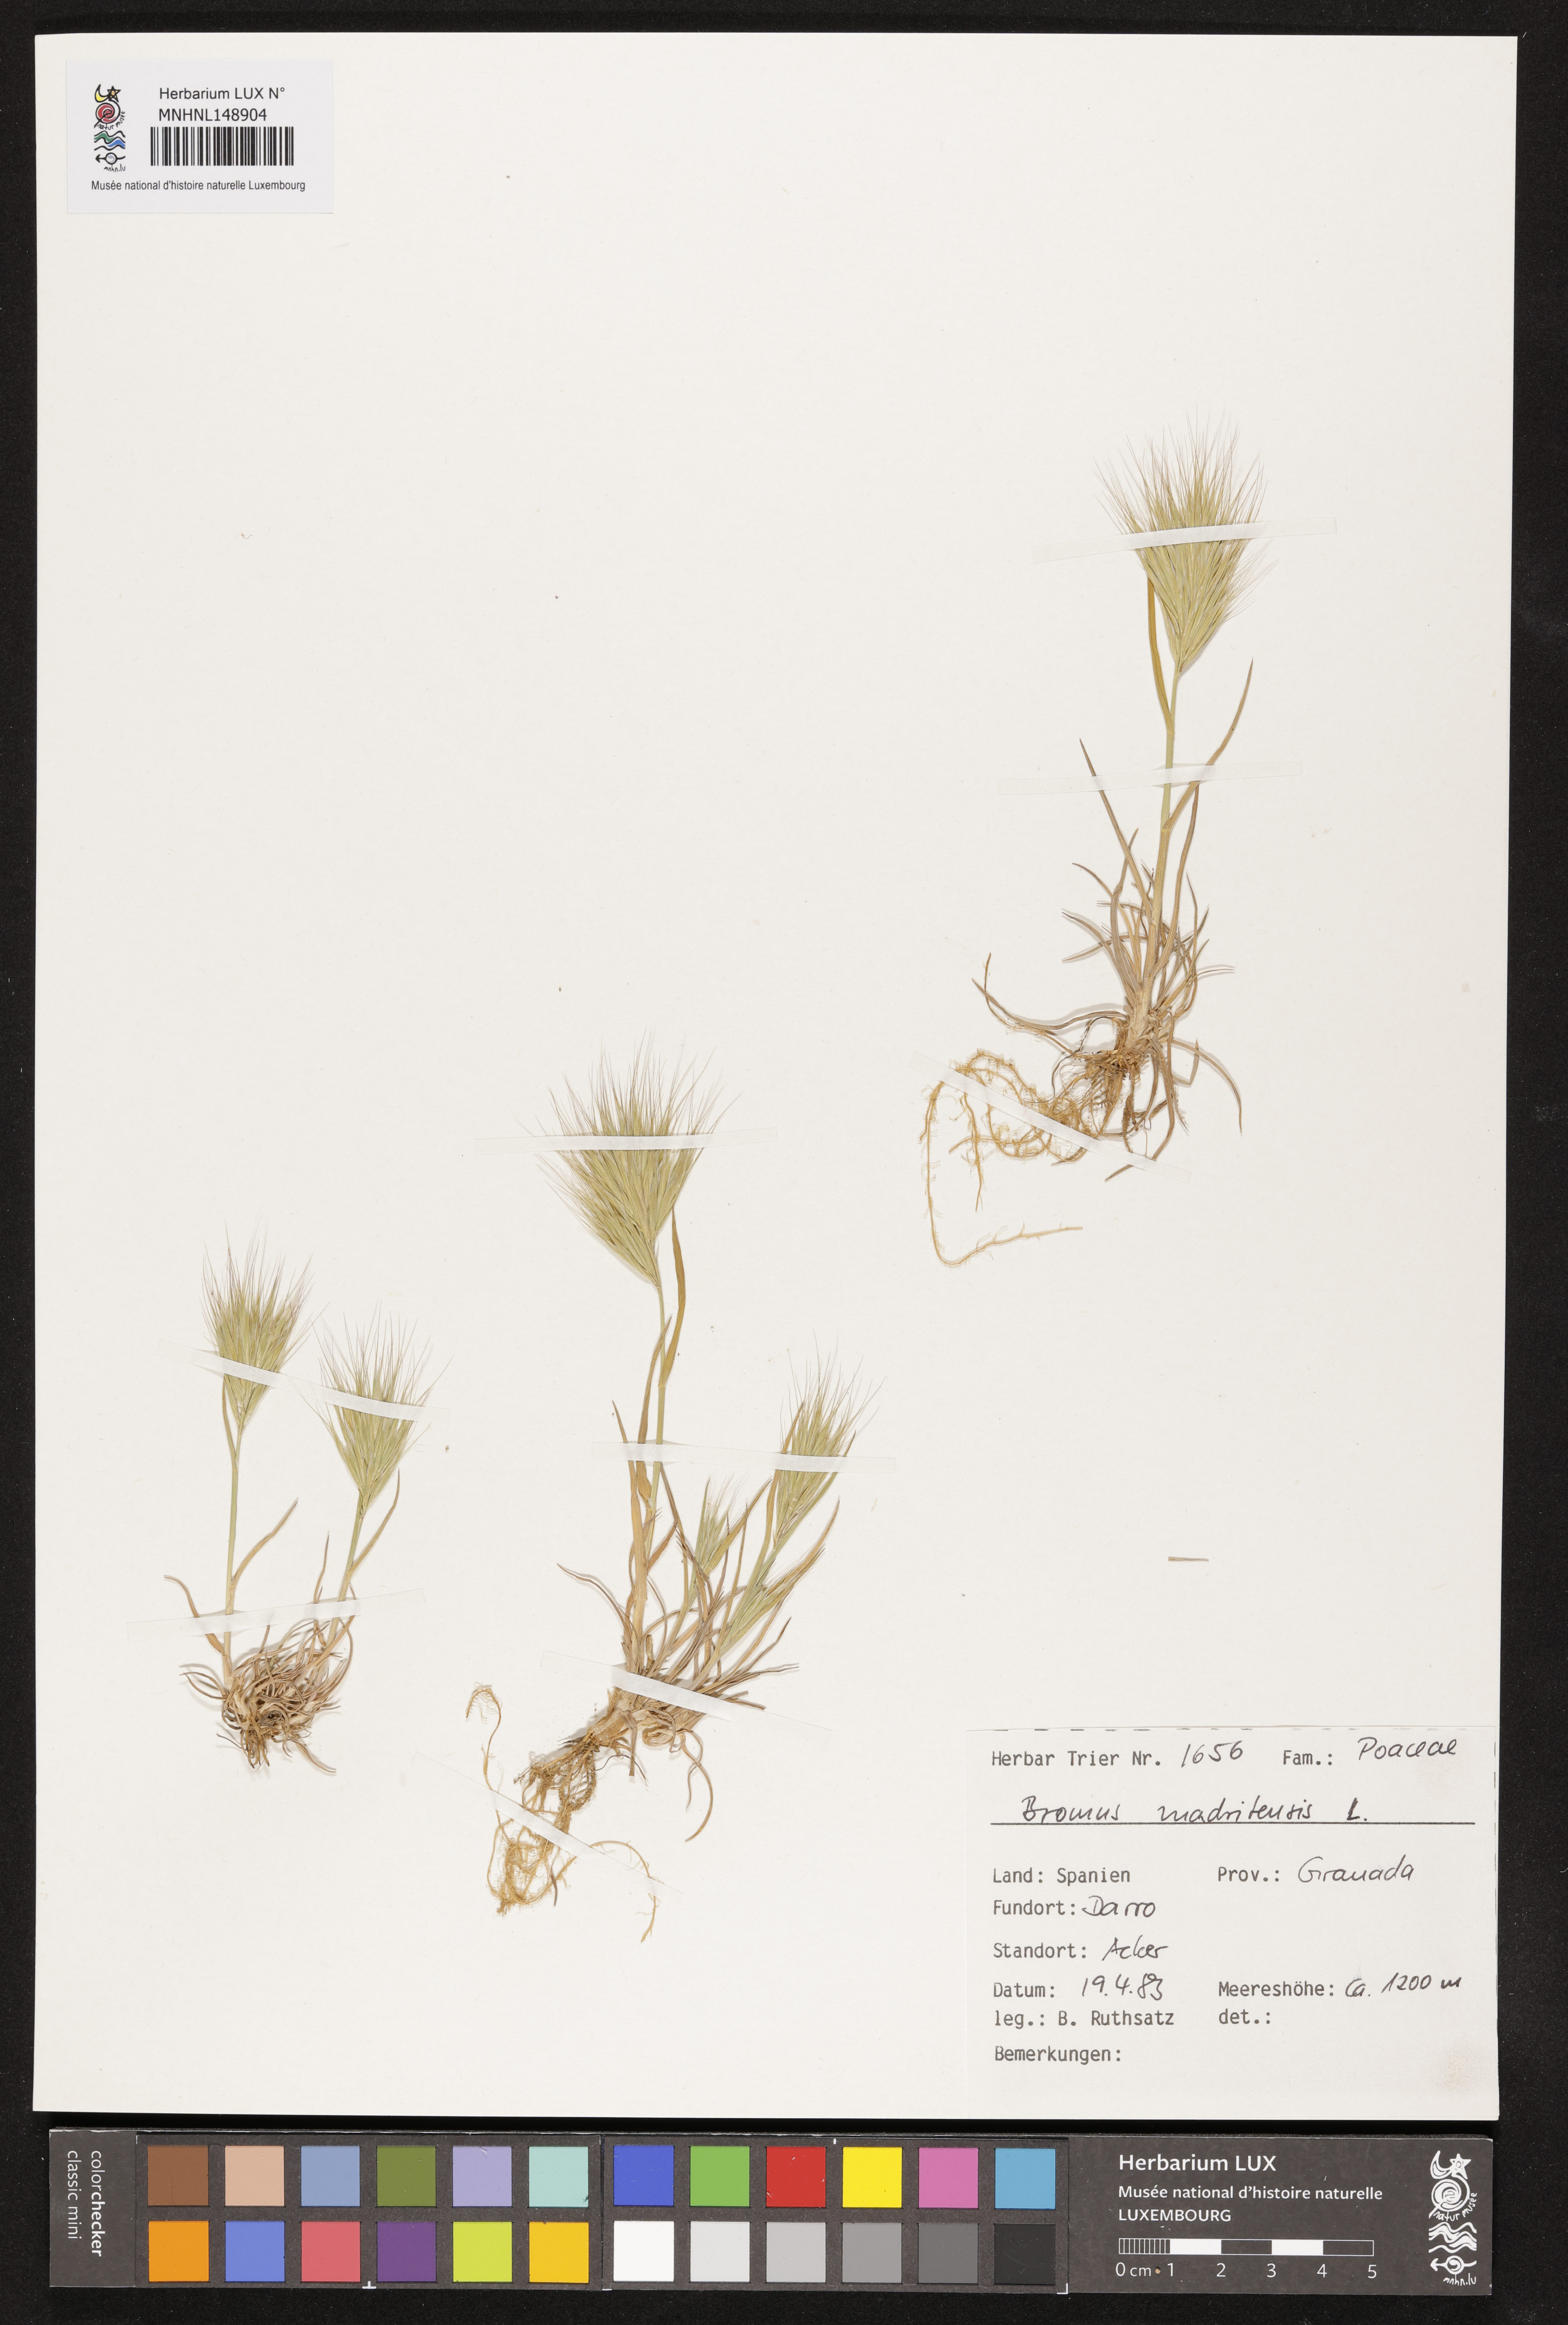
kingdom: Plantae
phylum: Tracheophyta
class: Liliopsida
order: Poales
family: Poaceae
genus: Bromus
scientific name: Bromus madritensis
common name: Compact brome
